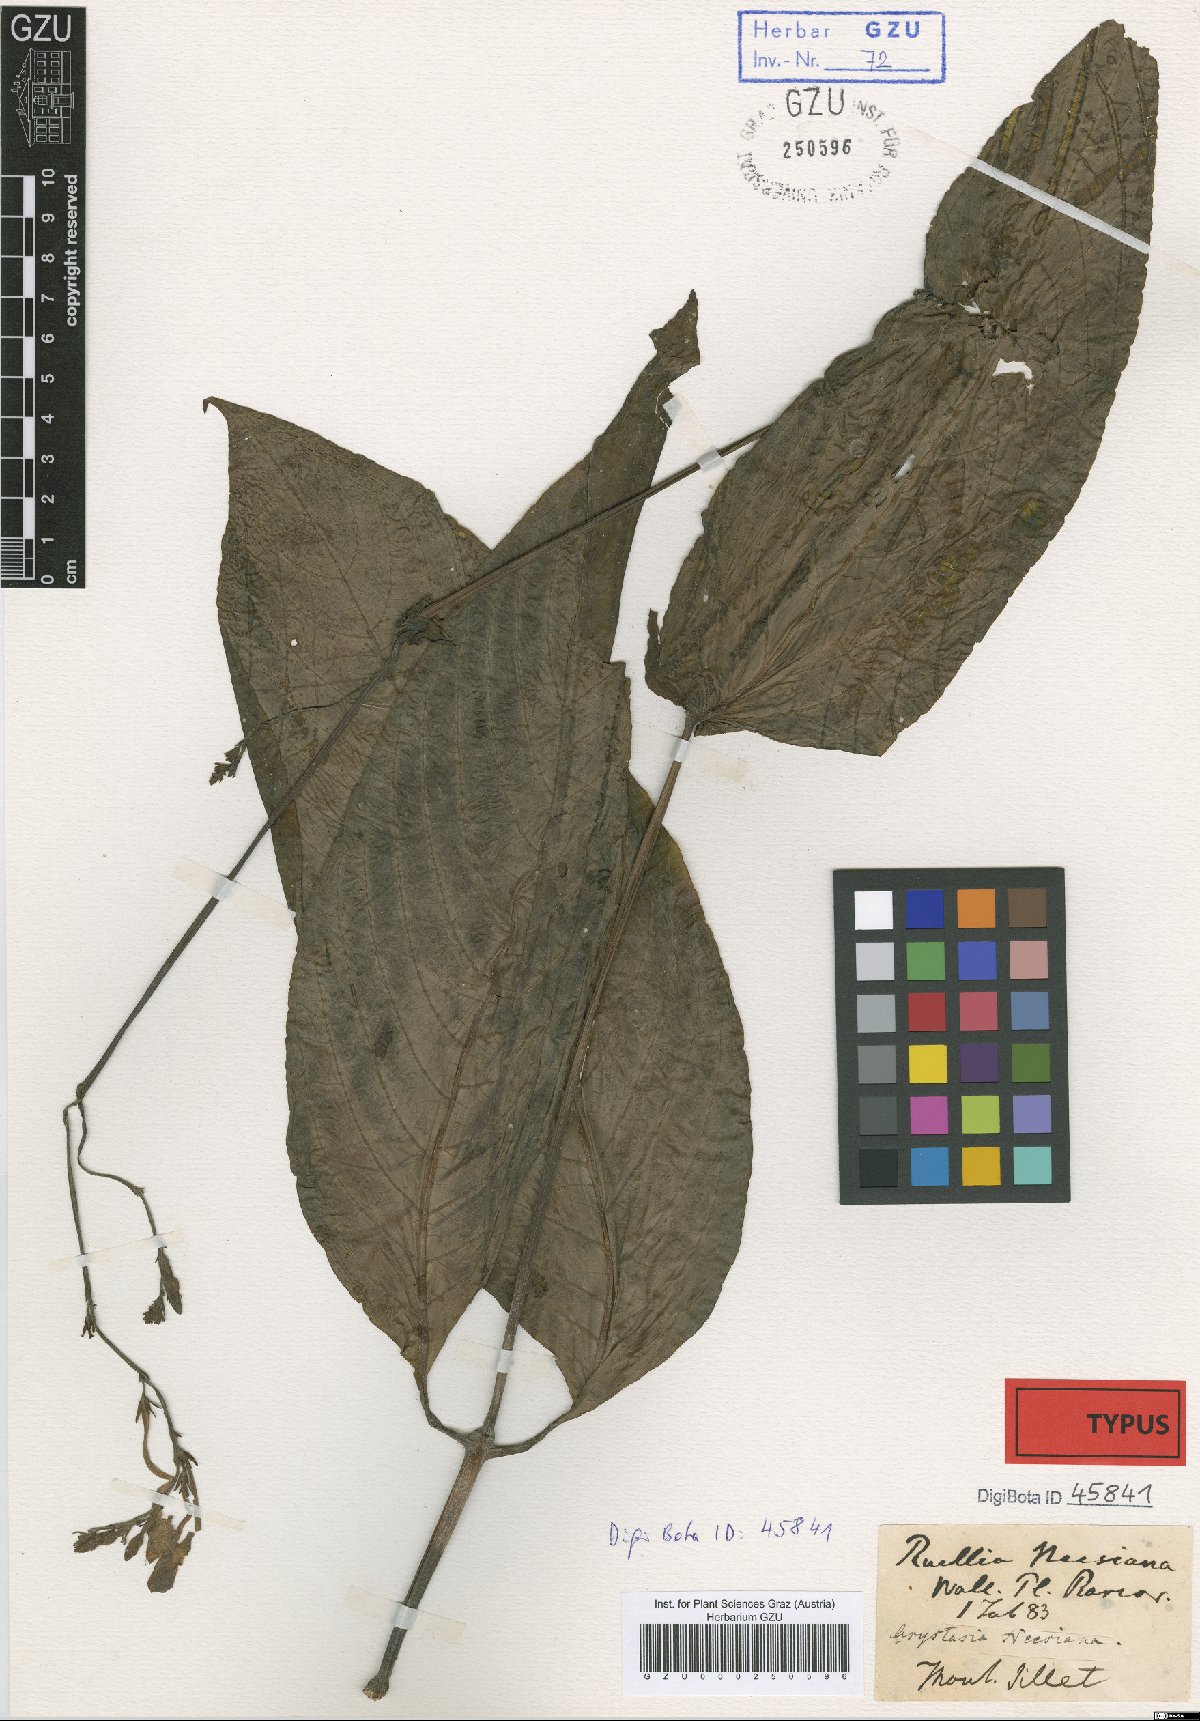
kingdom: Plantae
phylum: Tracheophyta
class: Magnoliopsida
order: Lamiales
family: Acanthaceae
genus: Mackaya
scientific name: Mackaya neesiana
